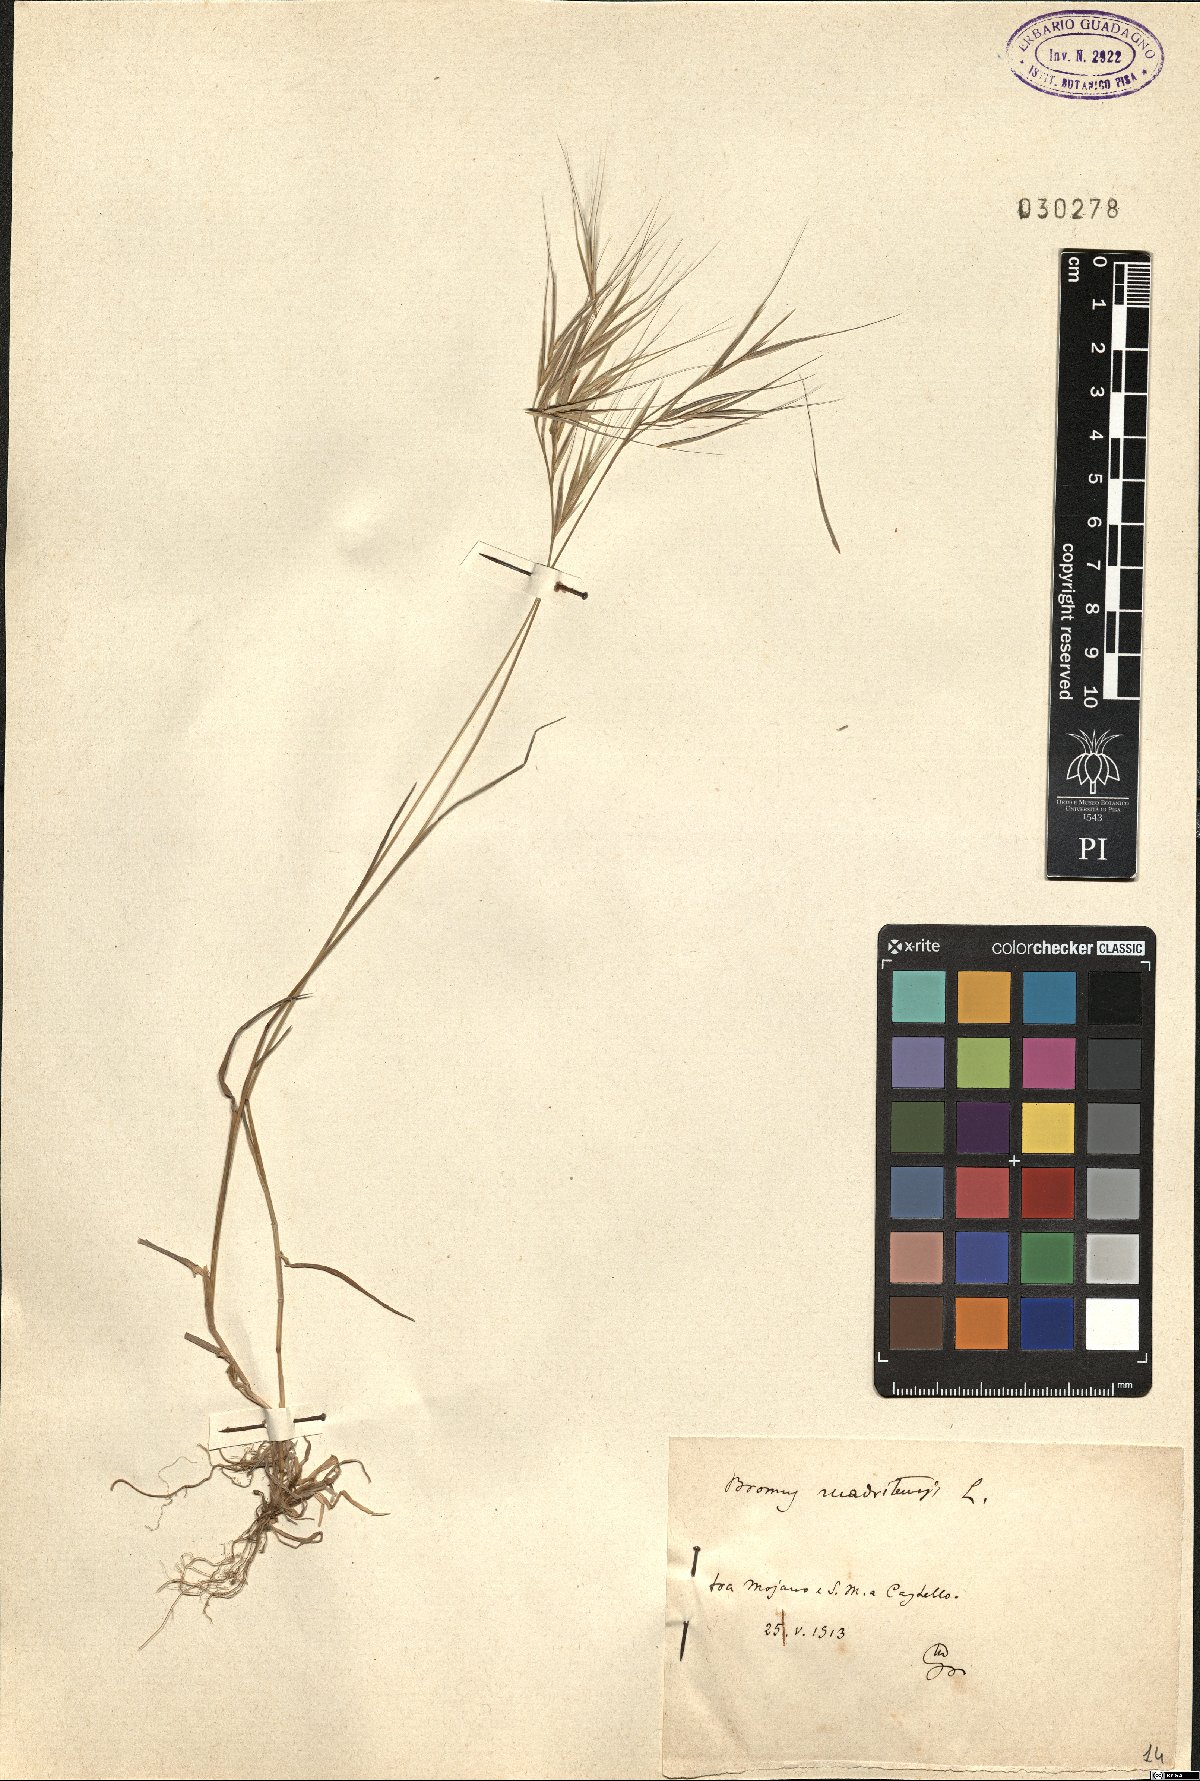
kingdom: Plantae
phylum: Tracheophyta
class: Liliopsida
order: Poales
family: Poaceae
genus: Bromus
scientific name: Bromus madritensis
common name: Compact brome
